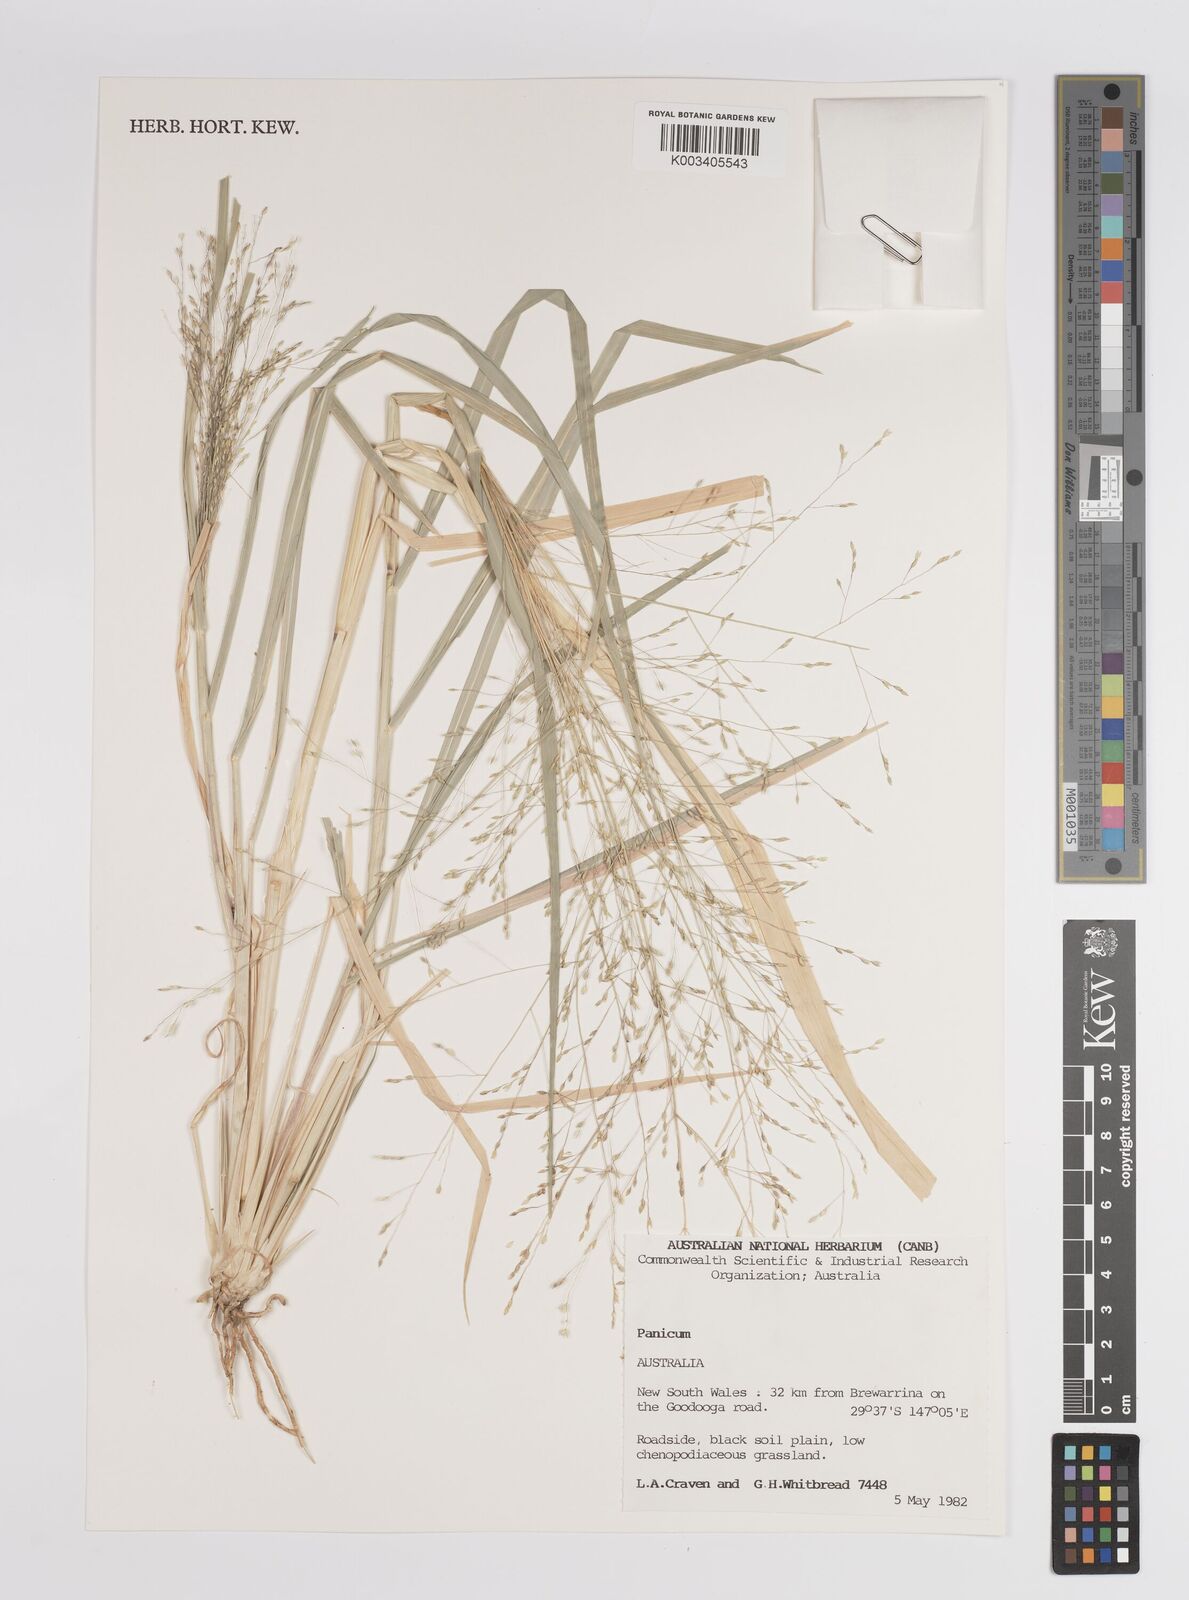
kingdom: Plantae
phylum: Tracheophyta
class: Liliopsida
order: Poales
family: Poaceae
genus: Panicum
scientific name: Panicum
